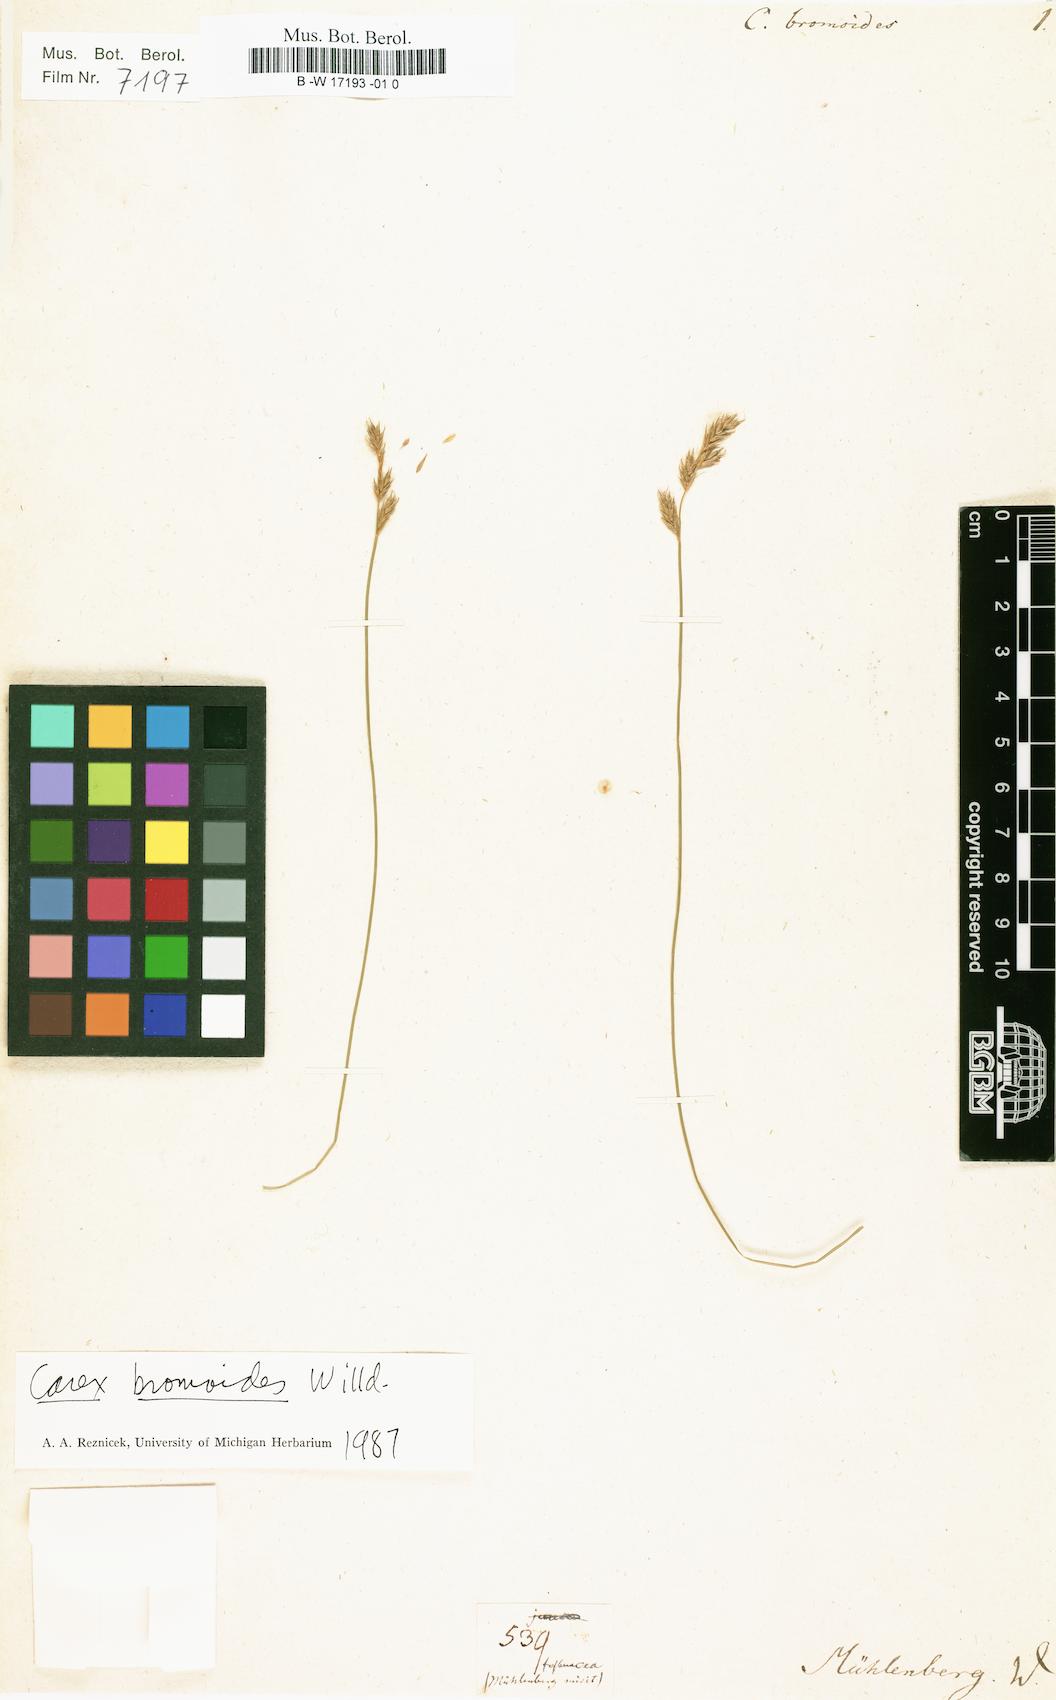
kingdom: Plantae
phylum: Tracheophyta
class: Liliopsida
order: Poales
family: Cyperaceae
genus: Carex
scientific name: Carex bromoides
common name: Brome hummock sedge
